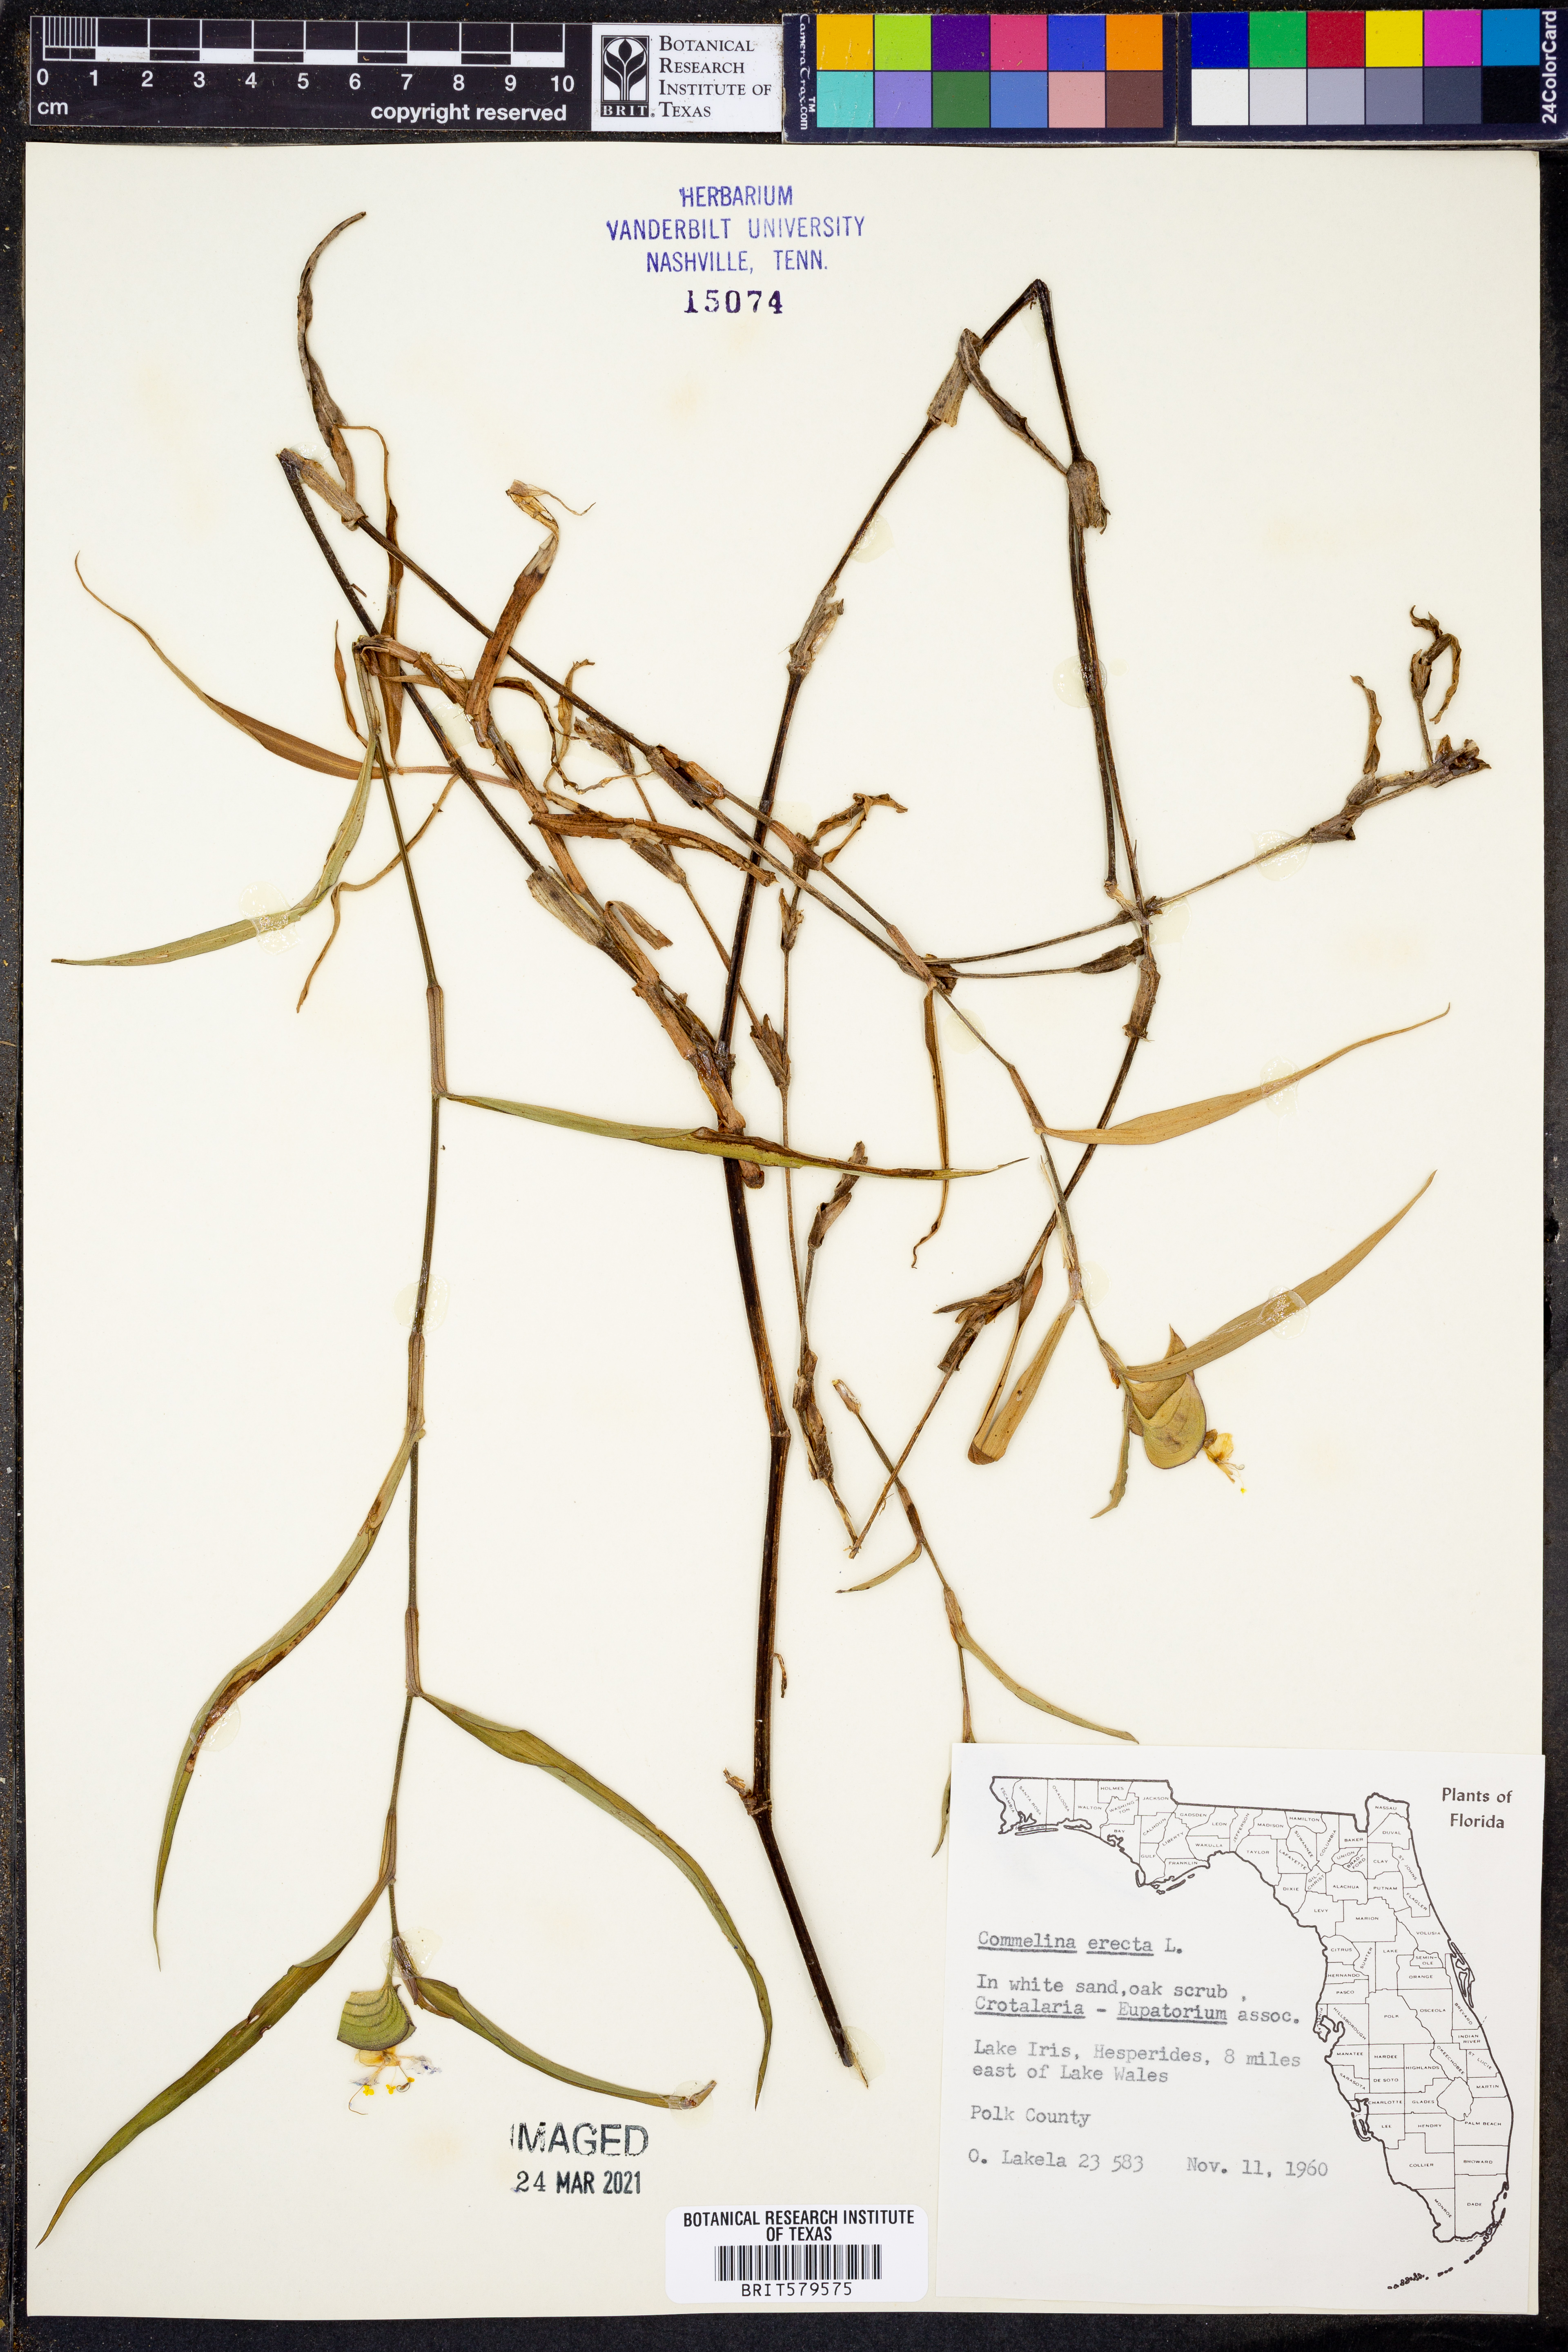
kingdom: Plantae
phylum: Tracheophyta
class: Liliopsida
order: Commelinales
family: Commelinaceae
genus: Commelina
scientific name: Commelina erecta
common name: Blousel blommetjie
